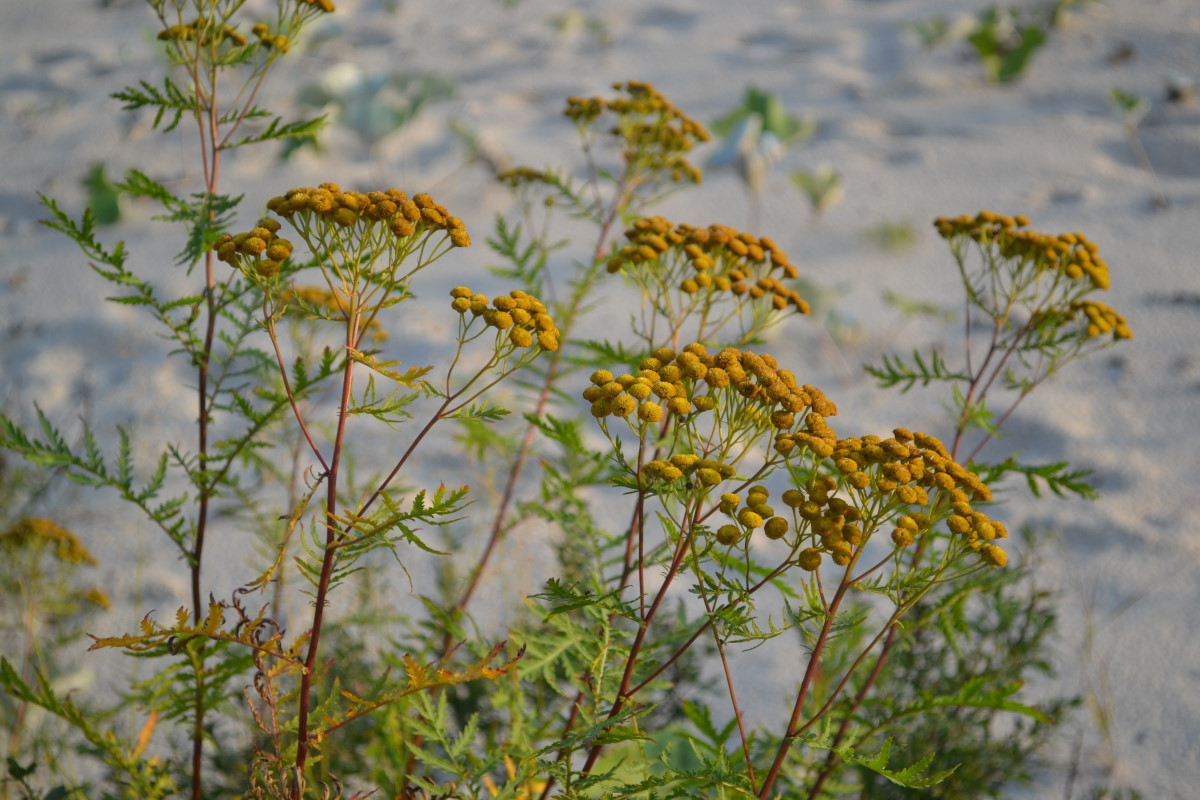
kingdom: Plantae
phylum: Tracheophyta
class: Magnoliopsida
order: Asterales
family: Asteraceae
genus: Tanacetum
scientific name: Tanacetum vulgare
